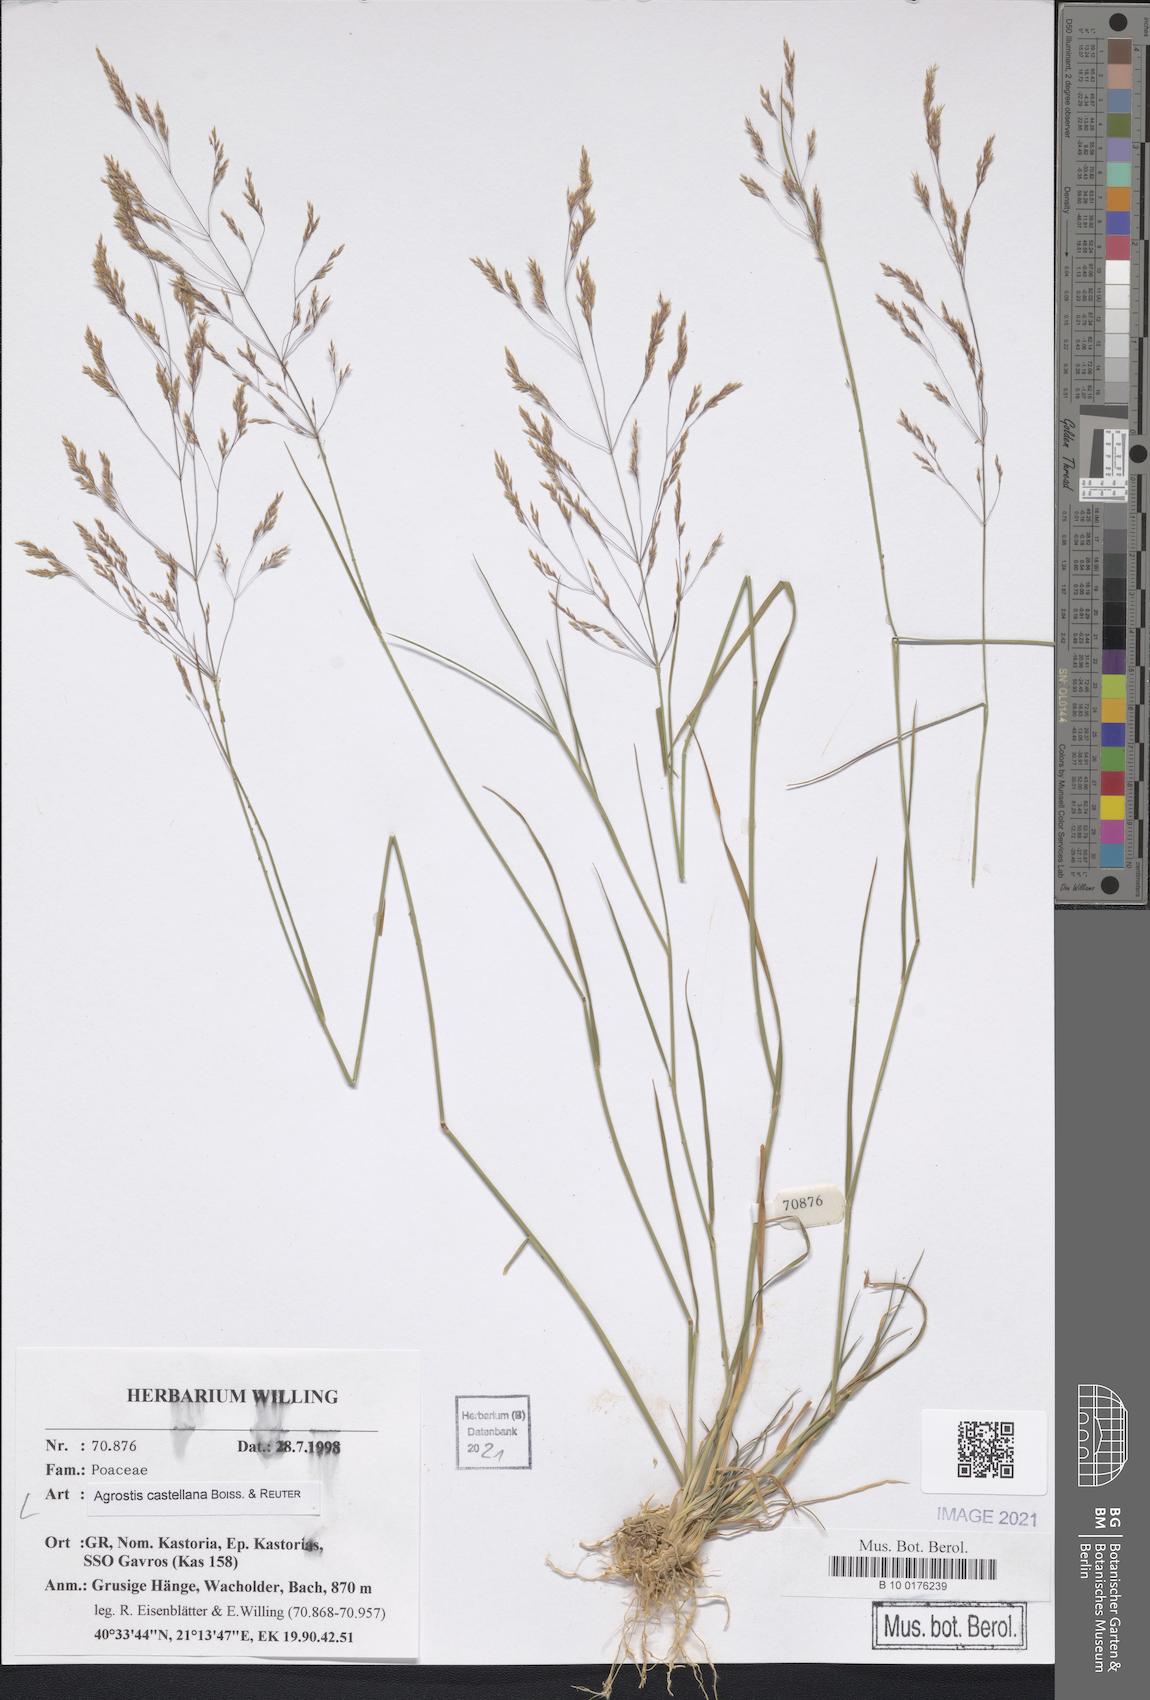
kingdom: Plantae
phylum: Tracheophyta
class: Liliopsida
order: Poales
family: Poaceae
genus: Agrostis
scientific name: Agrostis castellana
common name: Highland bent
